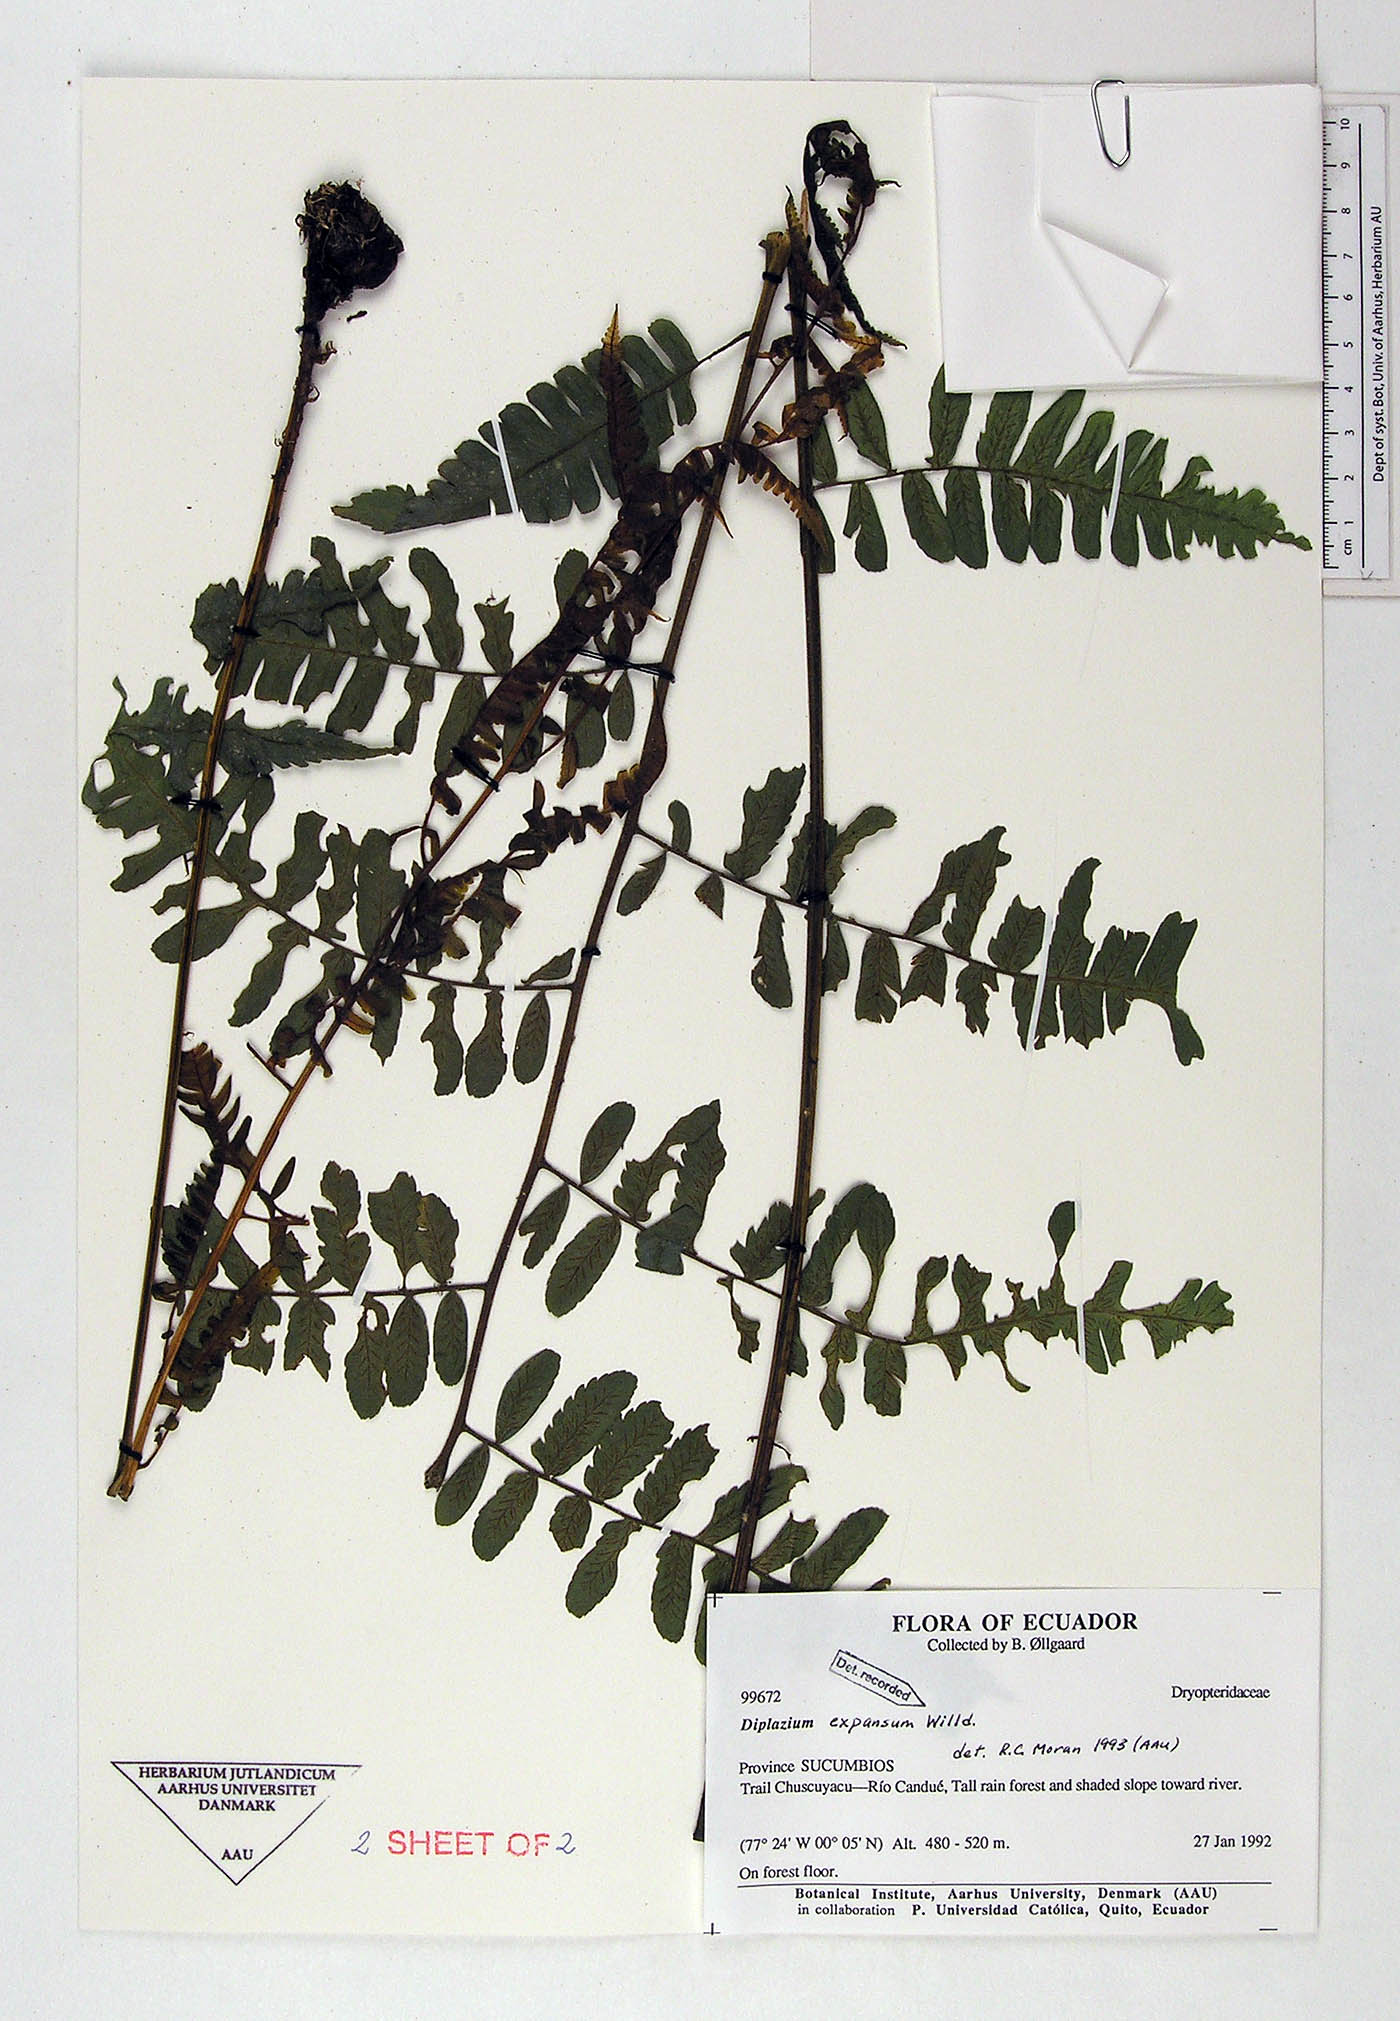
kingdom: Plantae
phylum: Tracheophyta
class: Polypodiopsida
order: Polypodiales
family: Athyriaceae
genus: Diplazium
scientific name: Diplazium expansum
